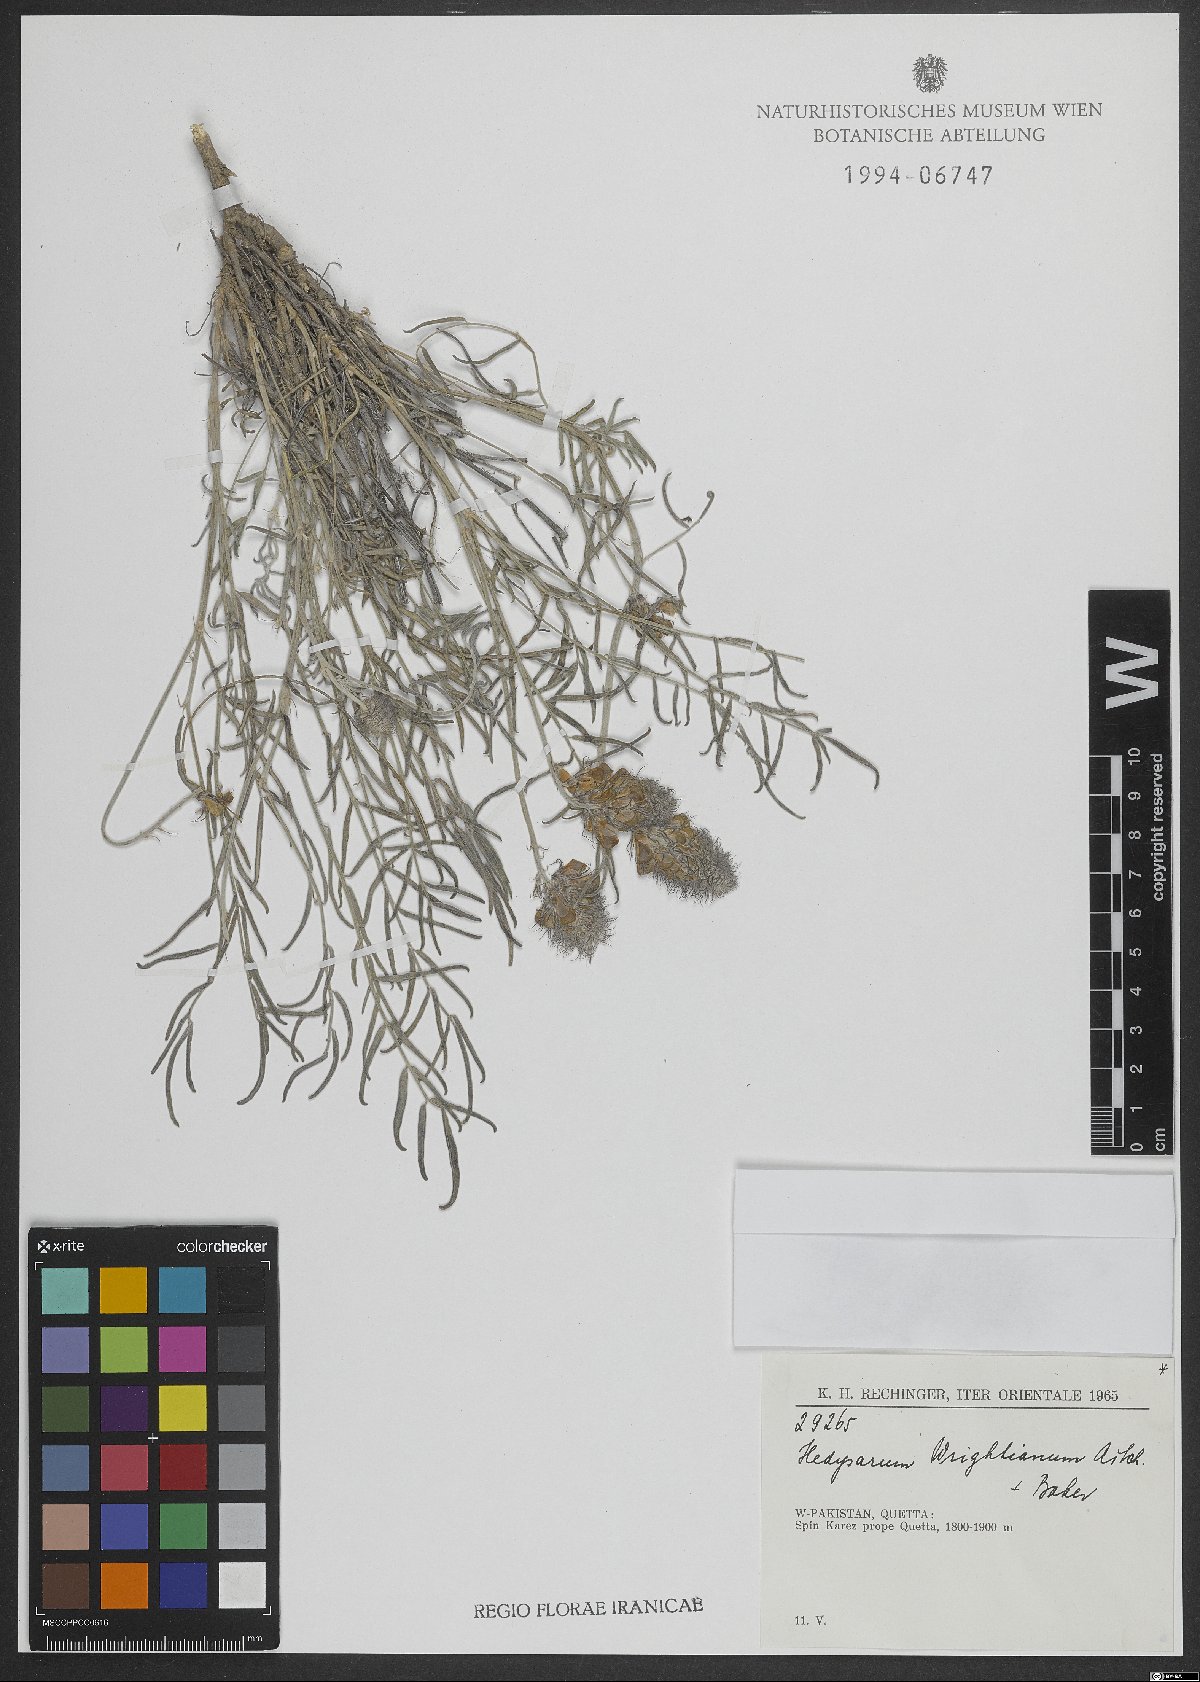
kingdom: Plantae
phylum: Tracheophyta
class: Magnoliopsida
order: Fabales
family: Fabaceae
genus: Hedysarum
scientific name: Hedysarum micropterum
